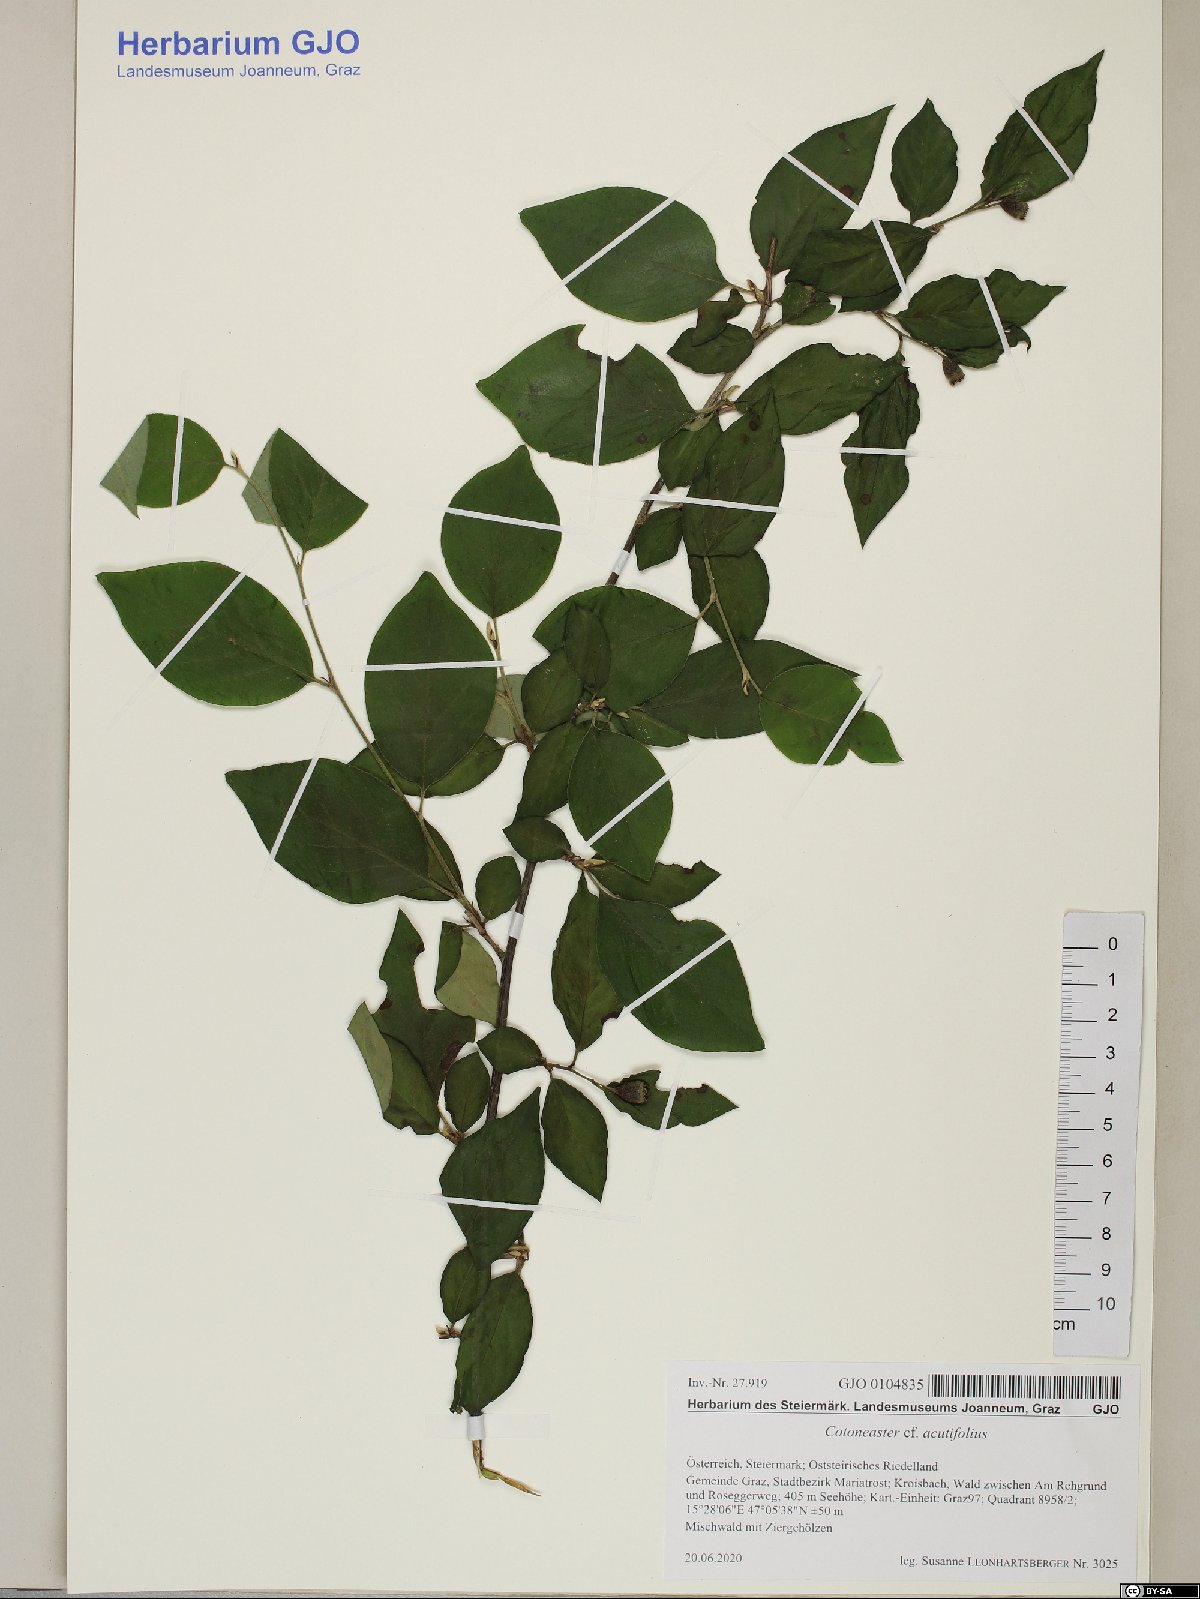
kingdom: Plantae
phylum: Tracheophyta
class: Magnoliopsida
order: Rosales
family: Rosaceae
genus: Cotoneaster
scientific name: Cotoneaster acutifolius
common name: Peking cotoneaster
